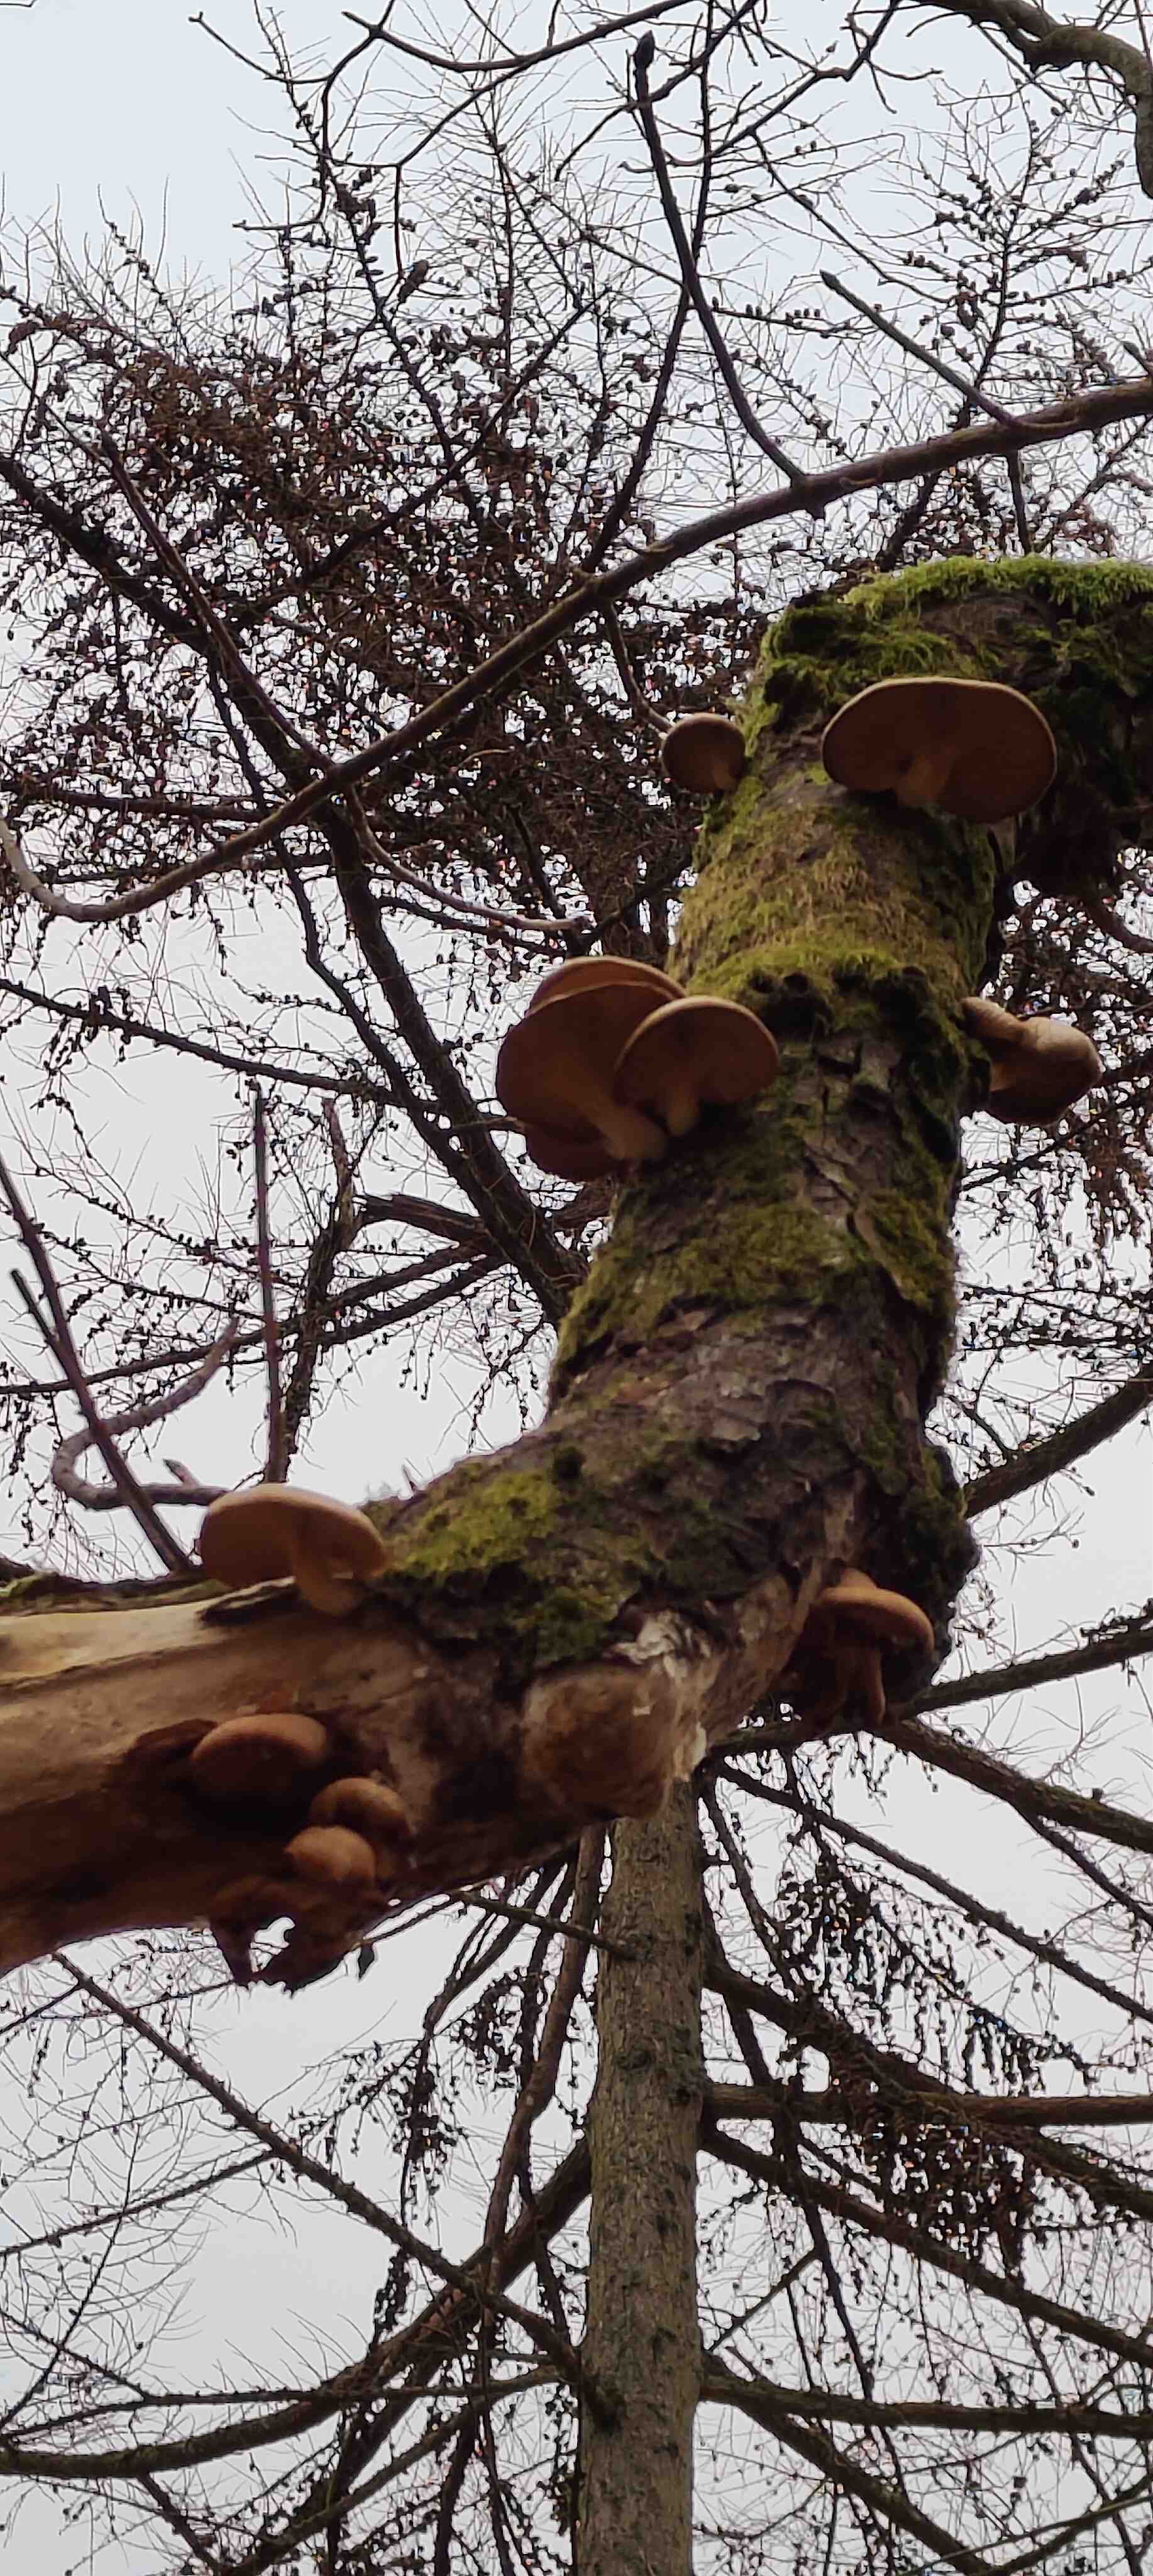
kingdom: Fungi
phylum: Basidiomycota
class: Agaricomycetes
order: Agaricales
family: Pleurotaceae
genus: Pleurotus
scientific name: Pleurotus ostreatus
